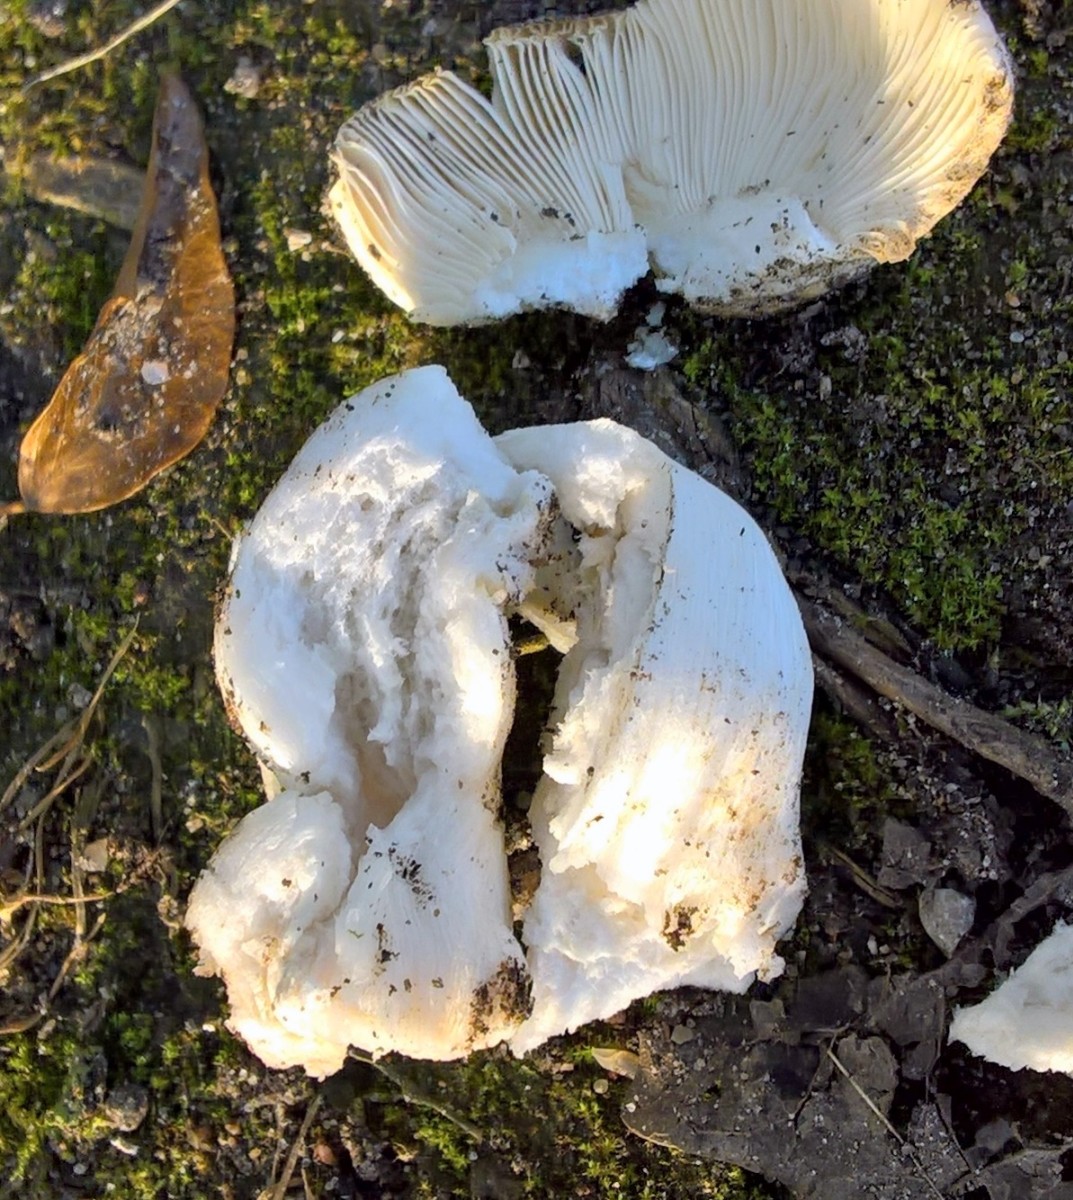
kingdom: Fungi
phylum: Basidiomycota
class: Agaricomycetes
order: Russulales
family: Russulaceae
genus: Russula
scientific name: Russula
